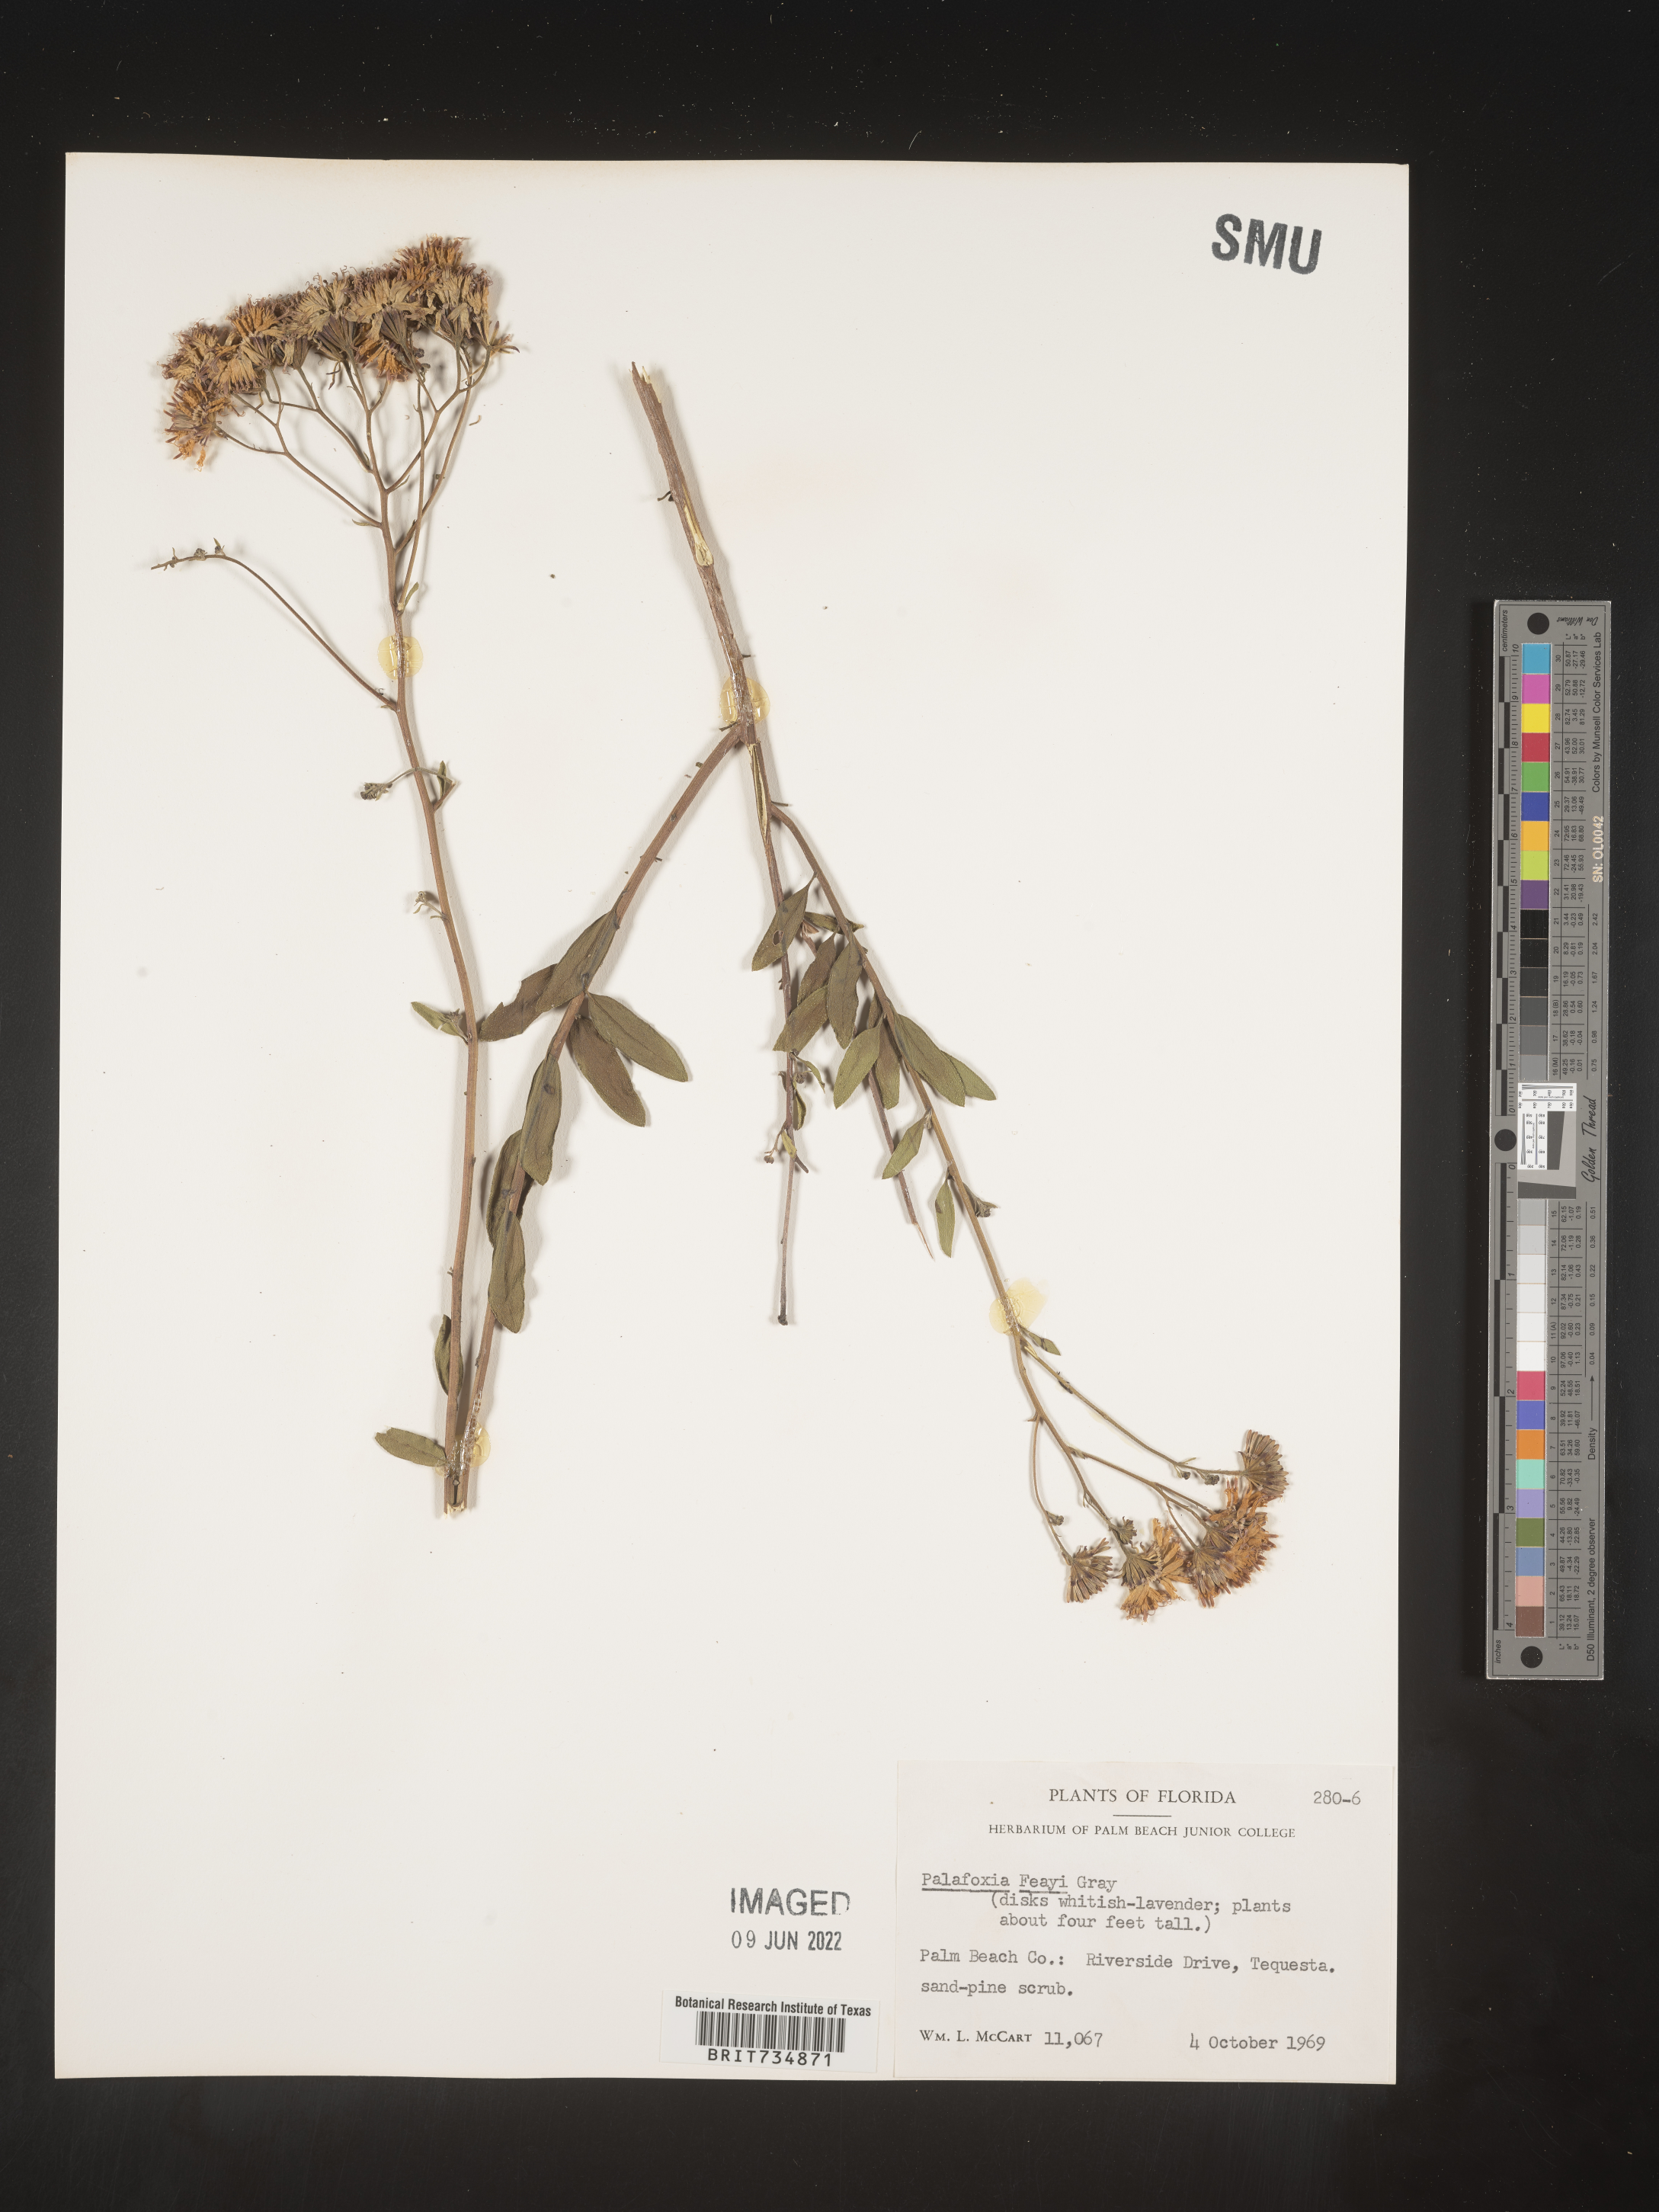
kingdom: Plantae
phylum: Tracheophyta
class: Magnoliopsida
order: Asterales
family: Asteraceae
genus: Palafoxia
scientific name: Palafoxia feayi
